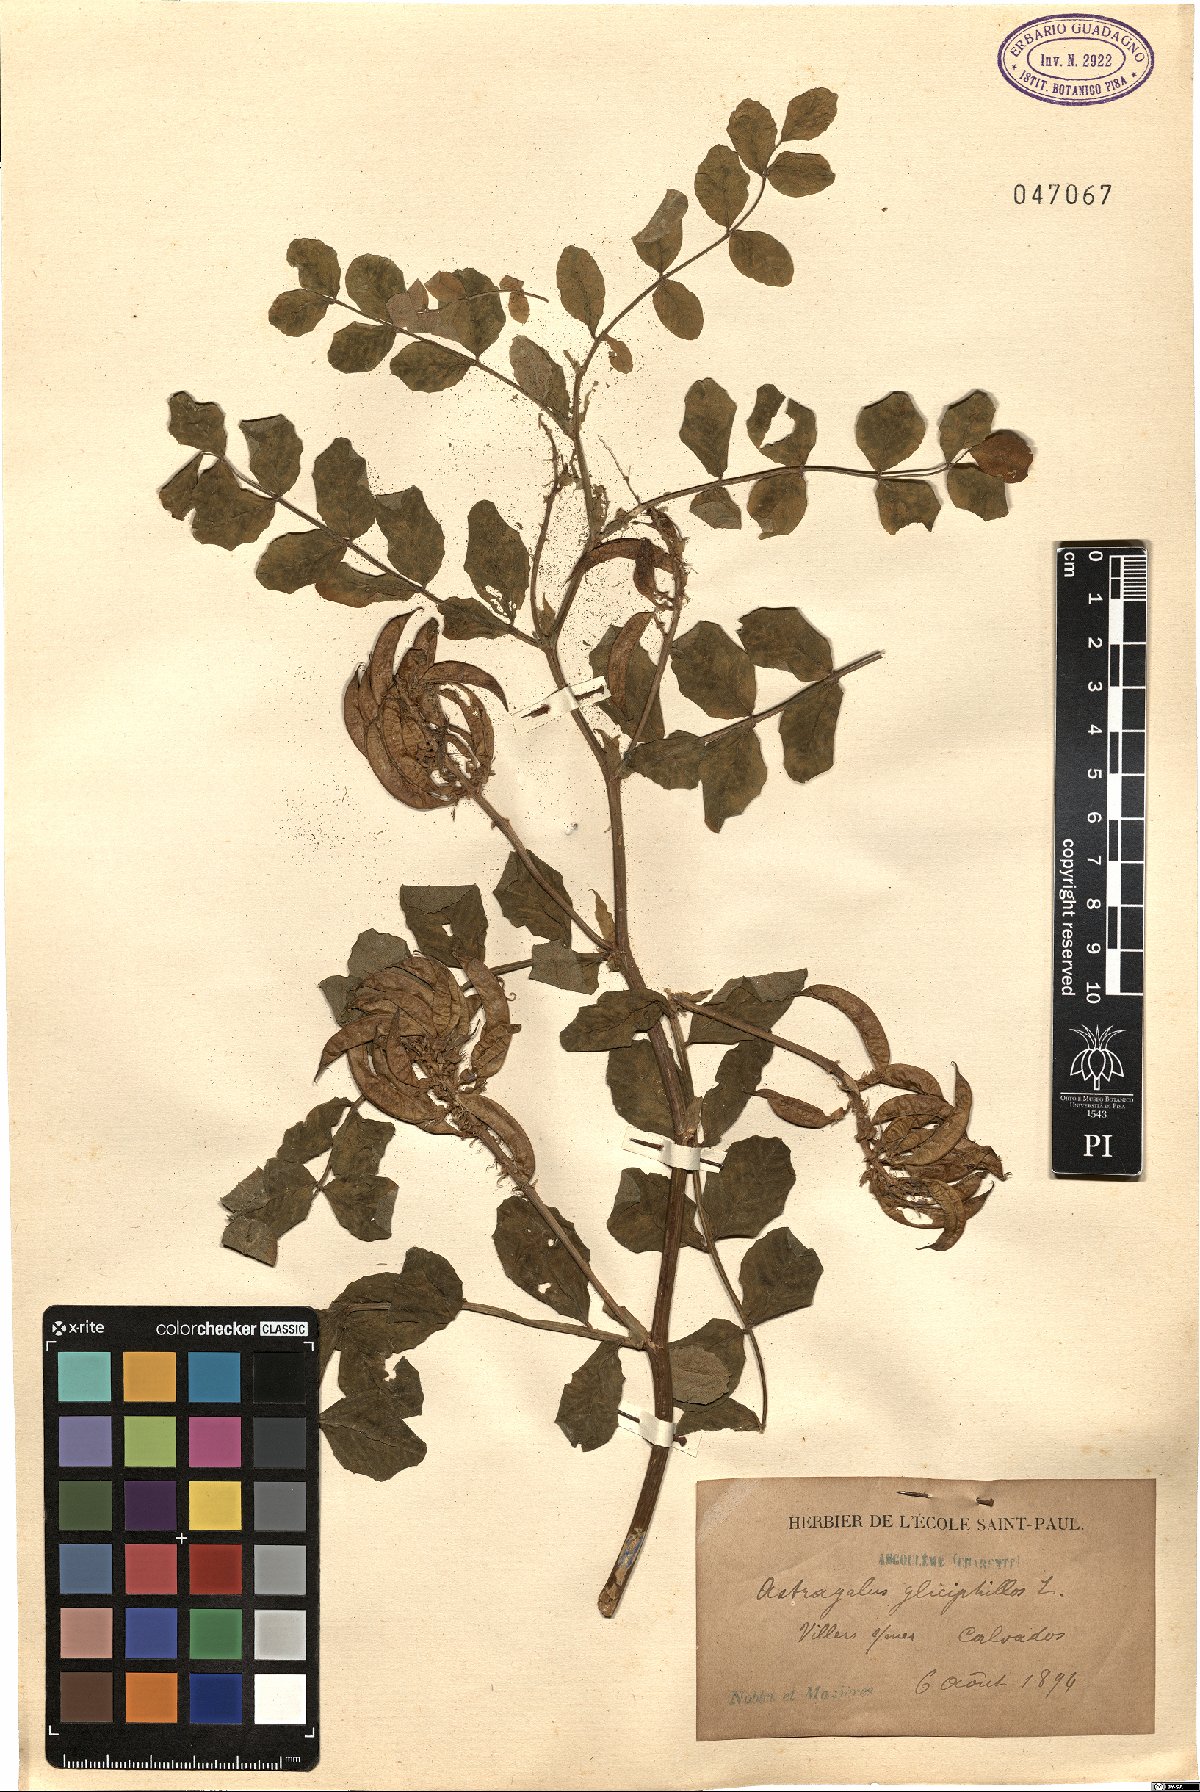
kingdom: Plantae
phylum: Tracheophyta
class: Magnoliopsida
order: Fabales
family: Fabaceae
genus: Astragalus
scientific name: Astragalus glycyphyllos
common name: Wild liquorice
